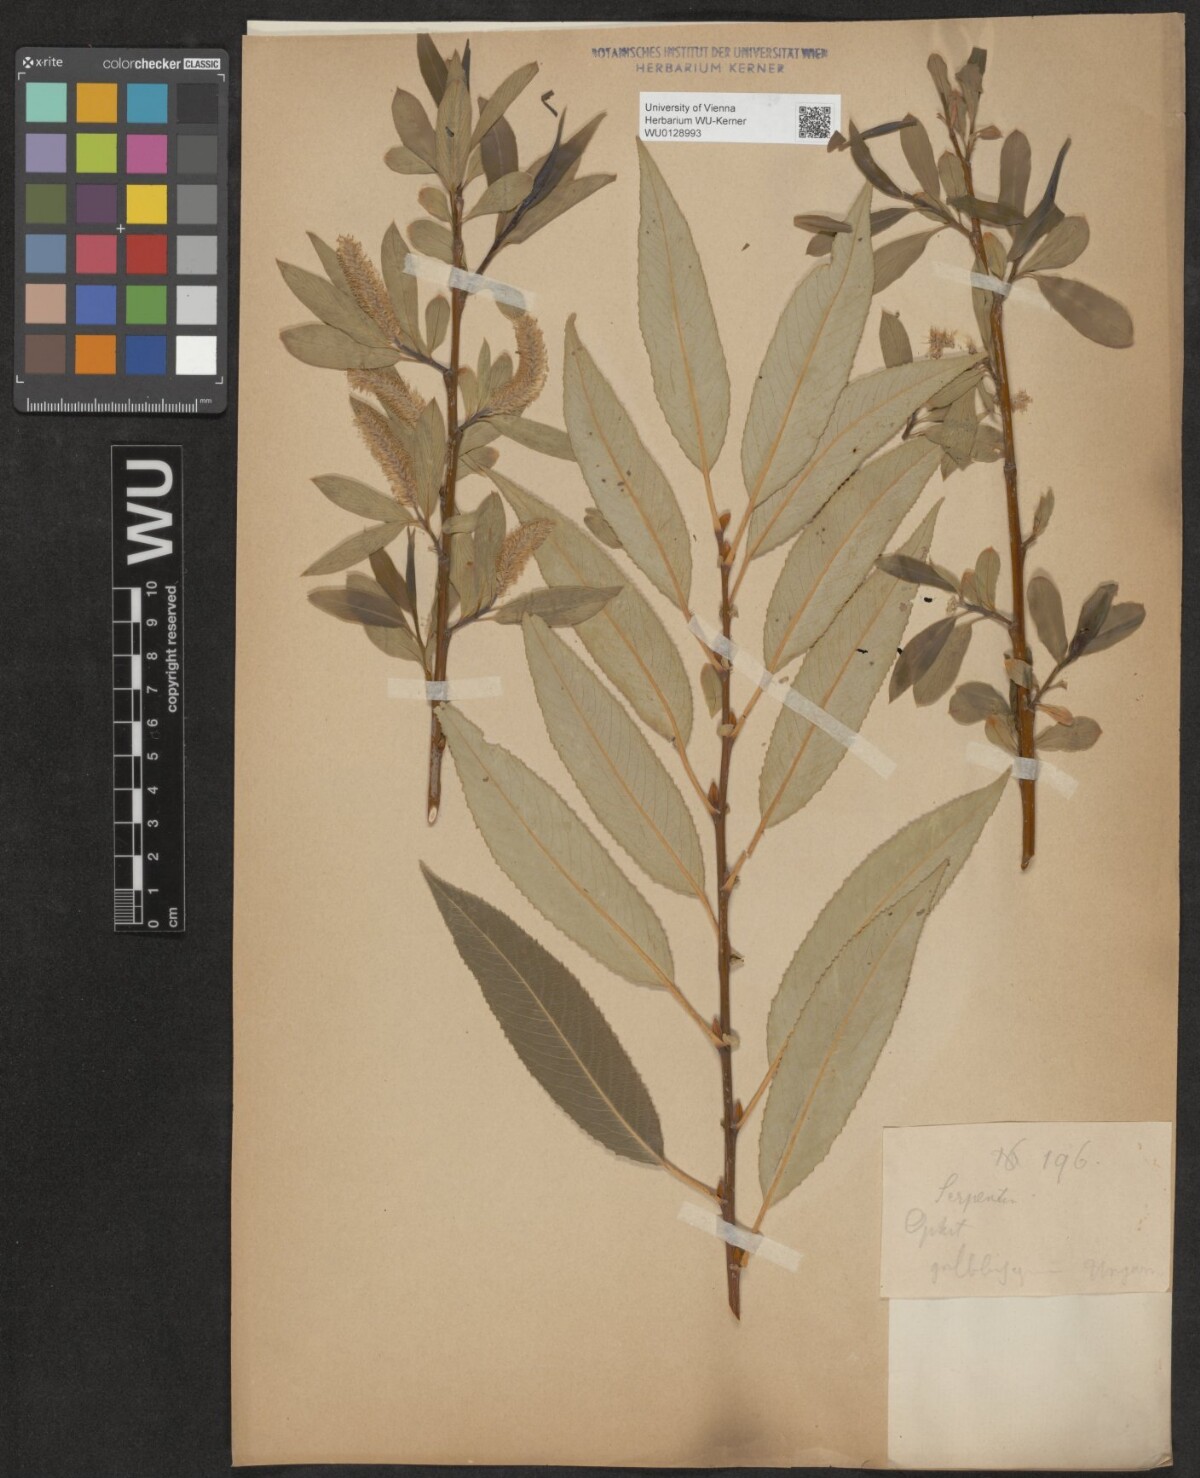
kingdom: Plantae
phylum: Tracheophyta
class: Magnoliopsida
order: Malpighiales
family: Salicaceae
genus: Salix
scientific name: Salix fragilis
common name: Crack willow
